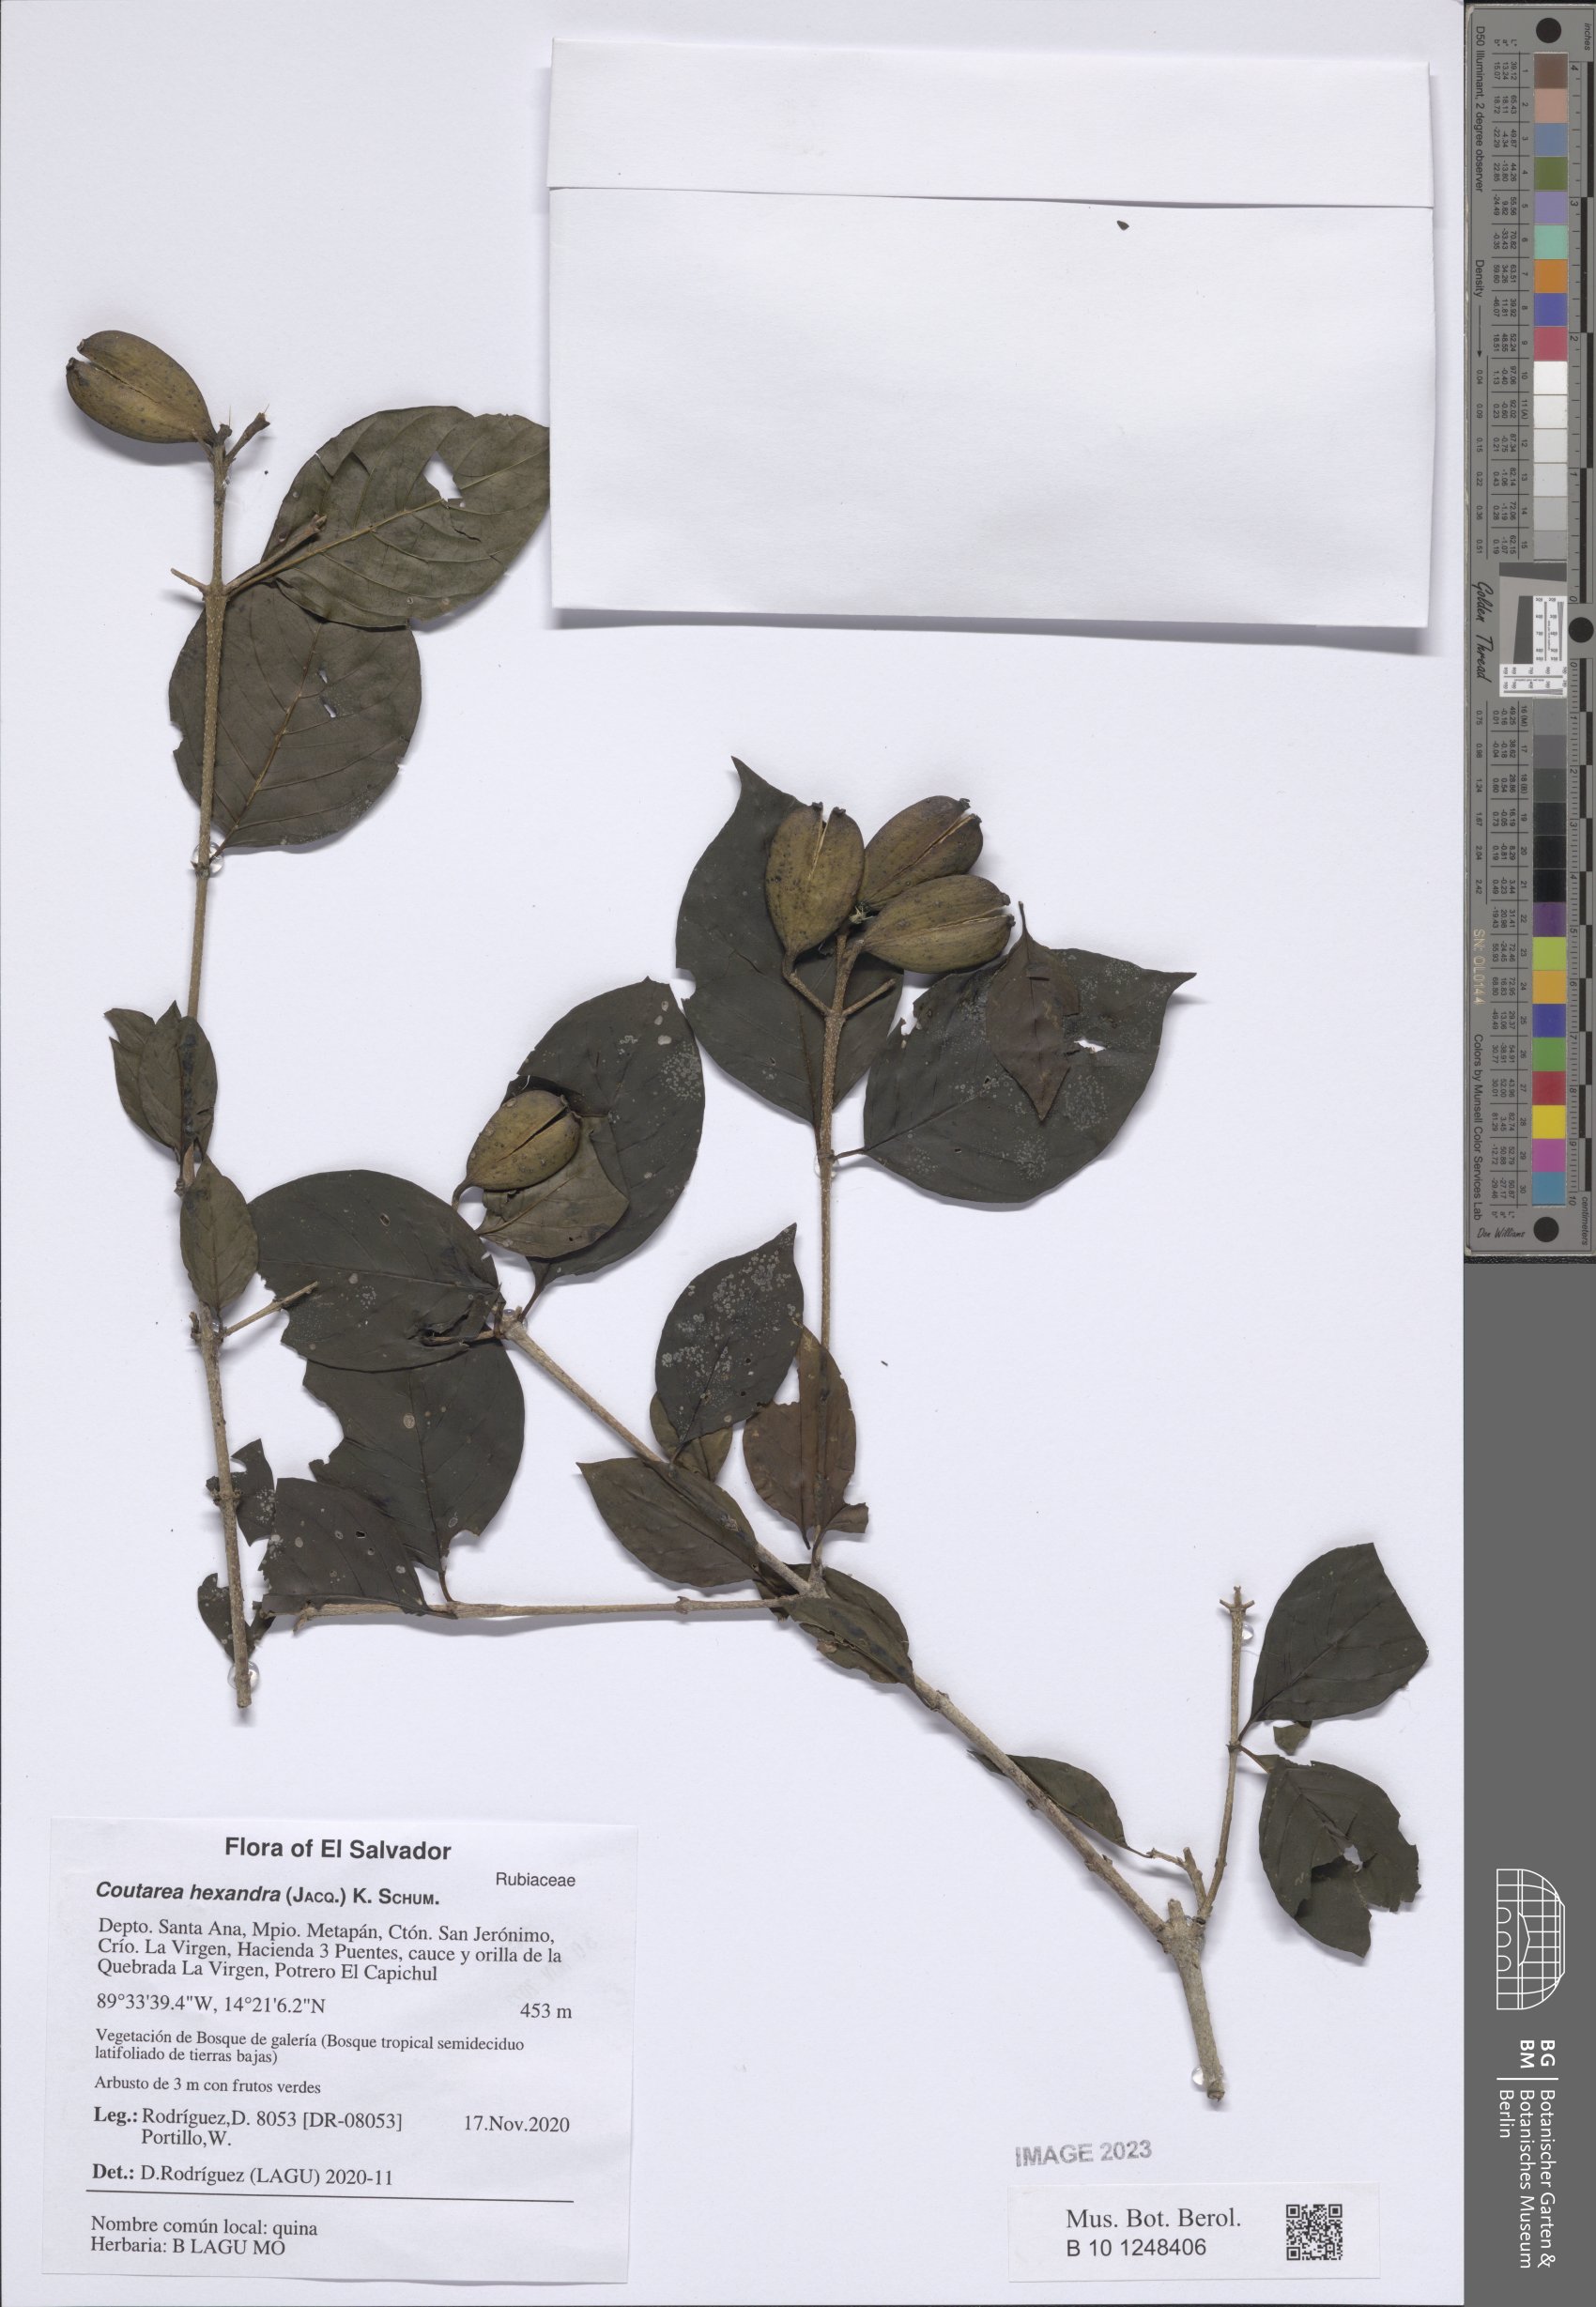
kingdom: Plantae
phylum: Tracheophyta
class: Magnoliopsida
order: Gentianales
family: Rubiaceae
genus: Coutarea
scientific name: Coutarea hexandra
